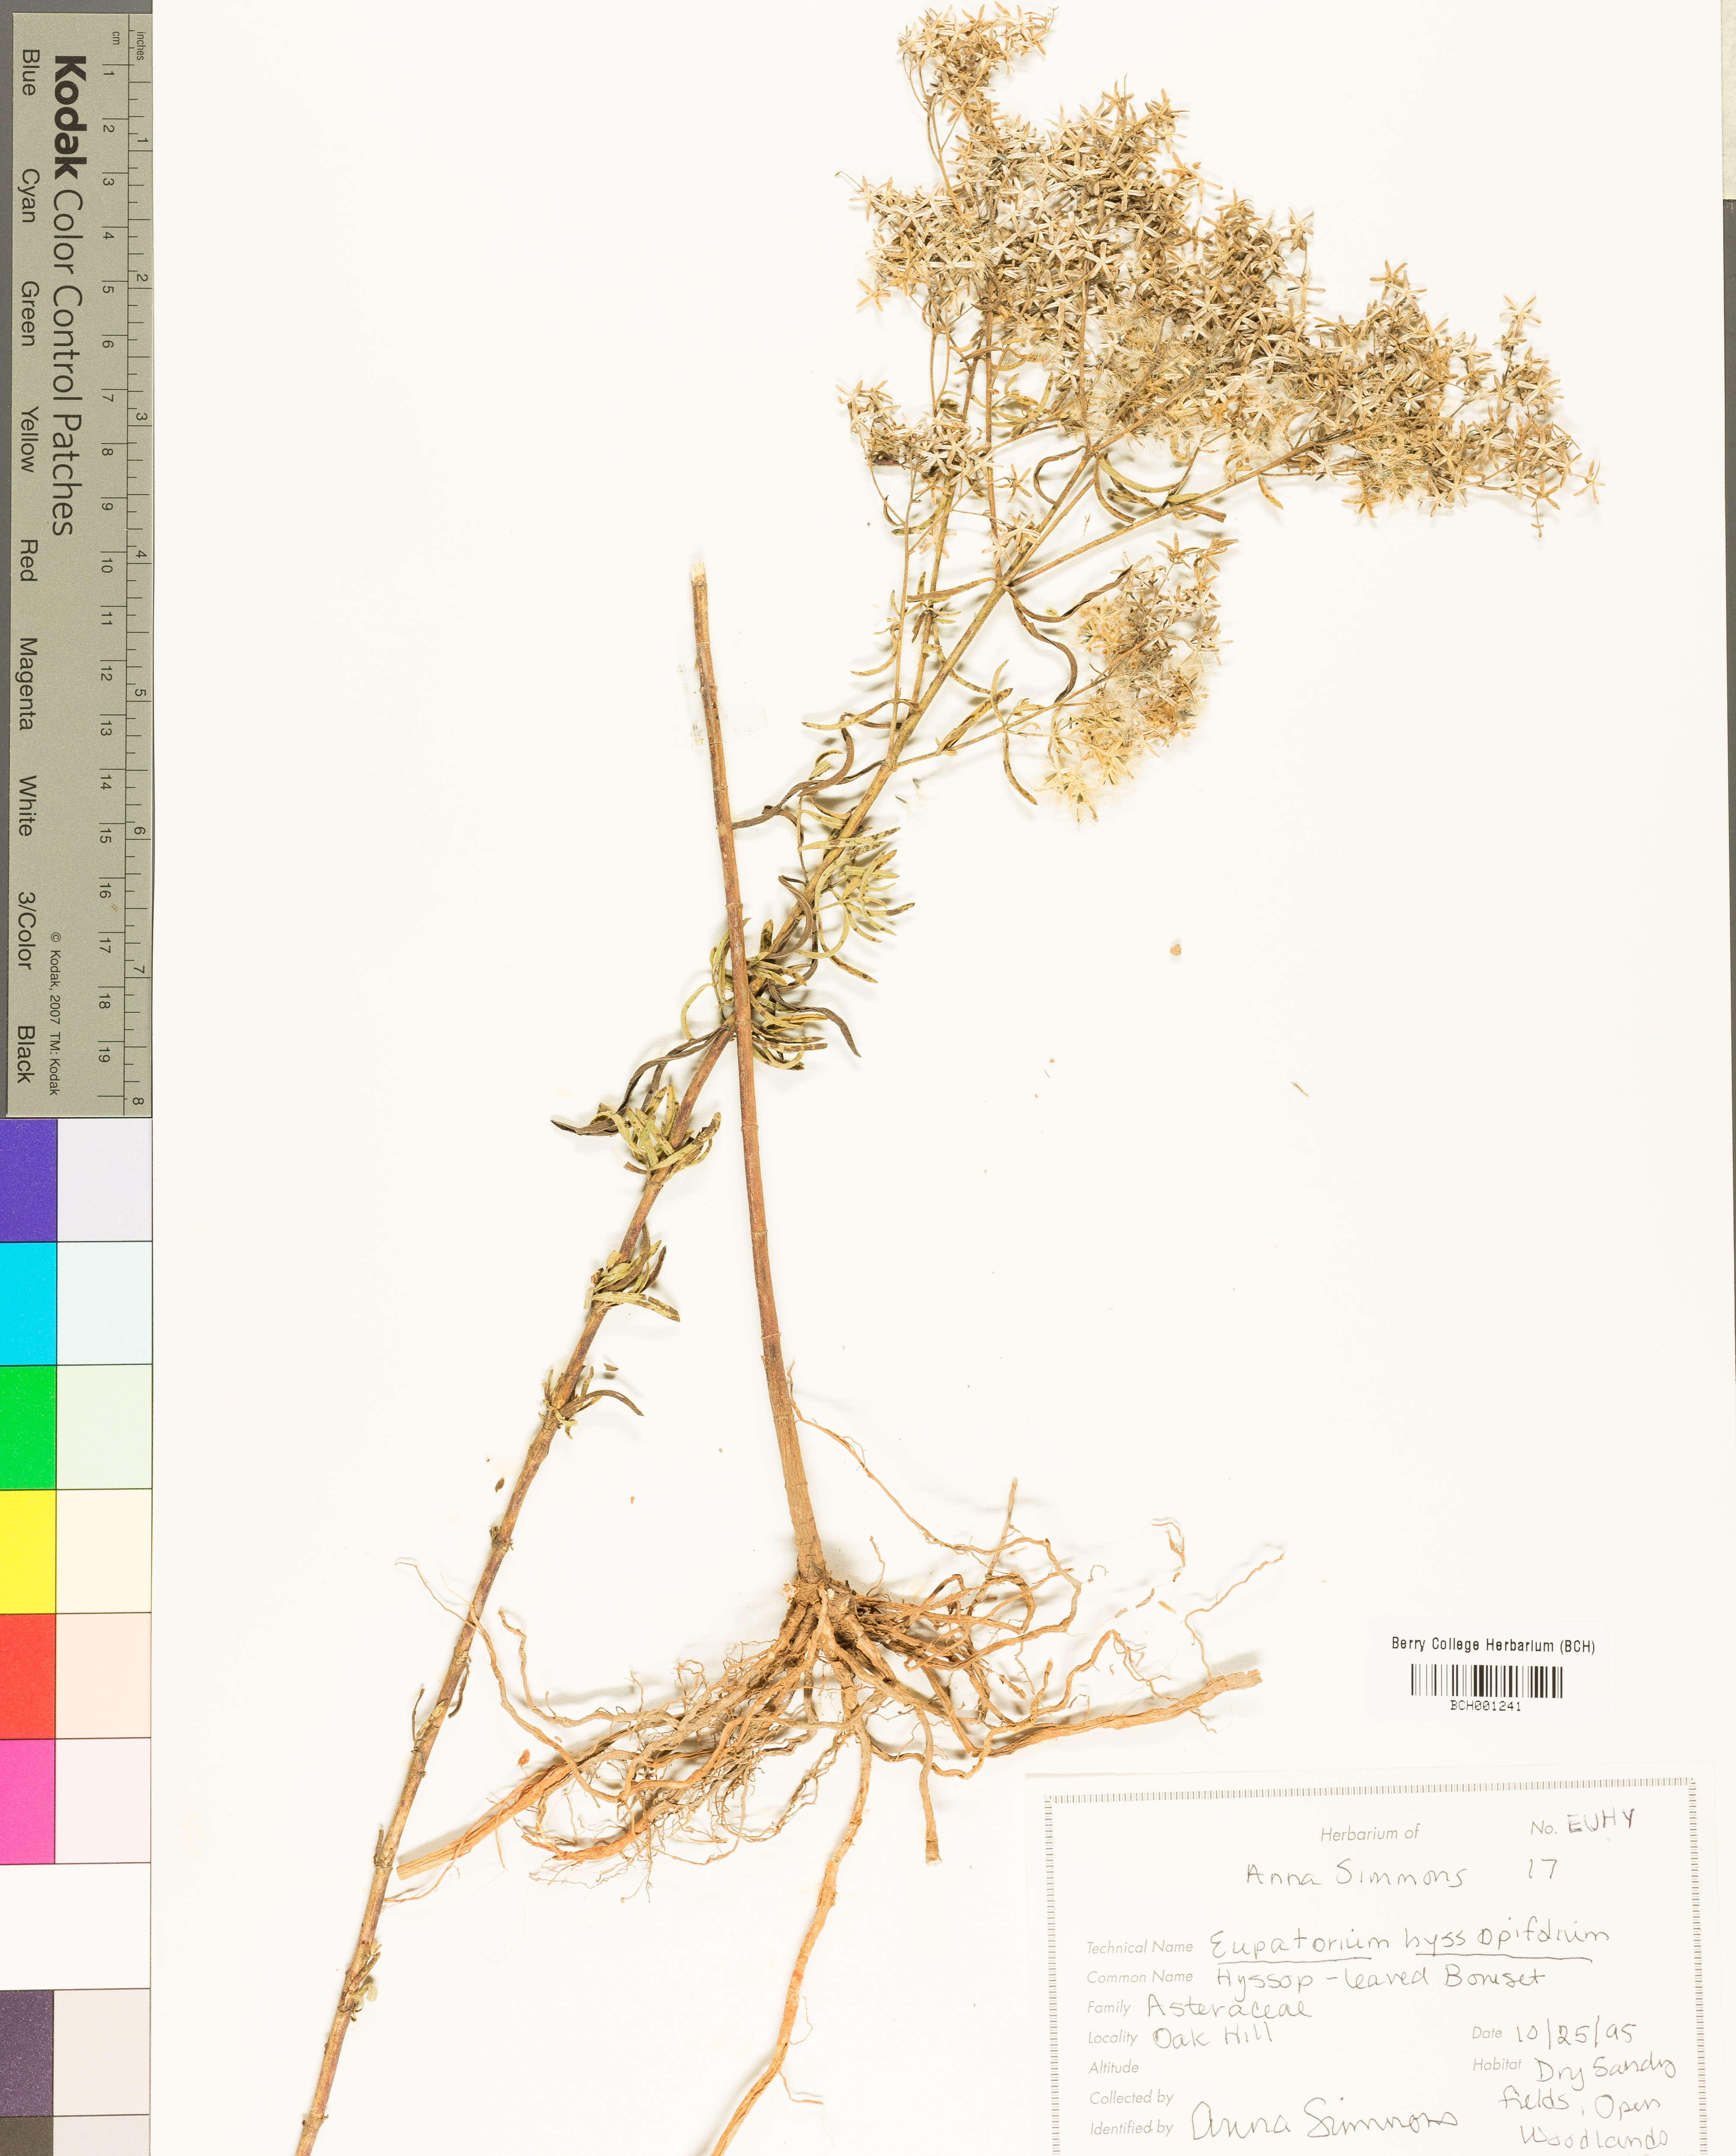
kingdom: Plantae
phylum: Tracheophyta
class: Magnoliopsida
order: Asterales
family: Asteraceae
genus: Eupatorium
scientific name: Eupatorium hyssopifolium
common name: Hyssop-leaf thoroughwort
